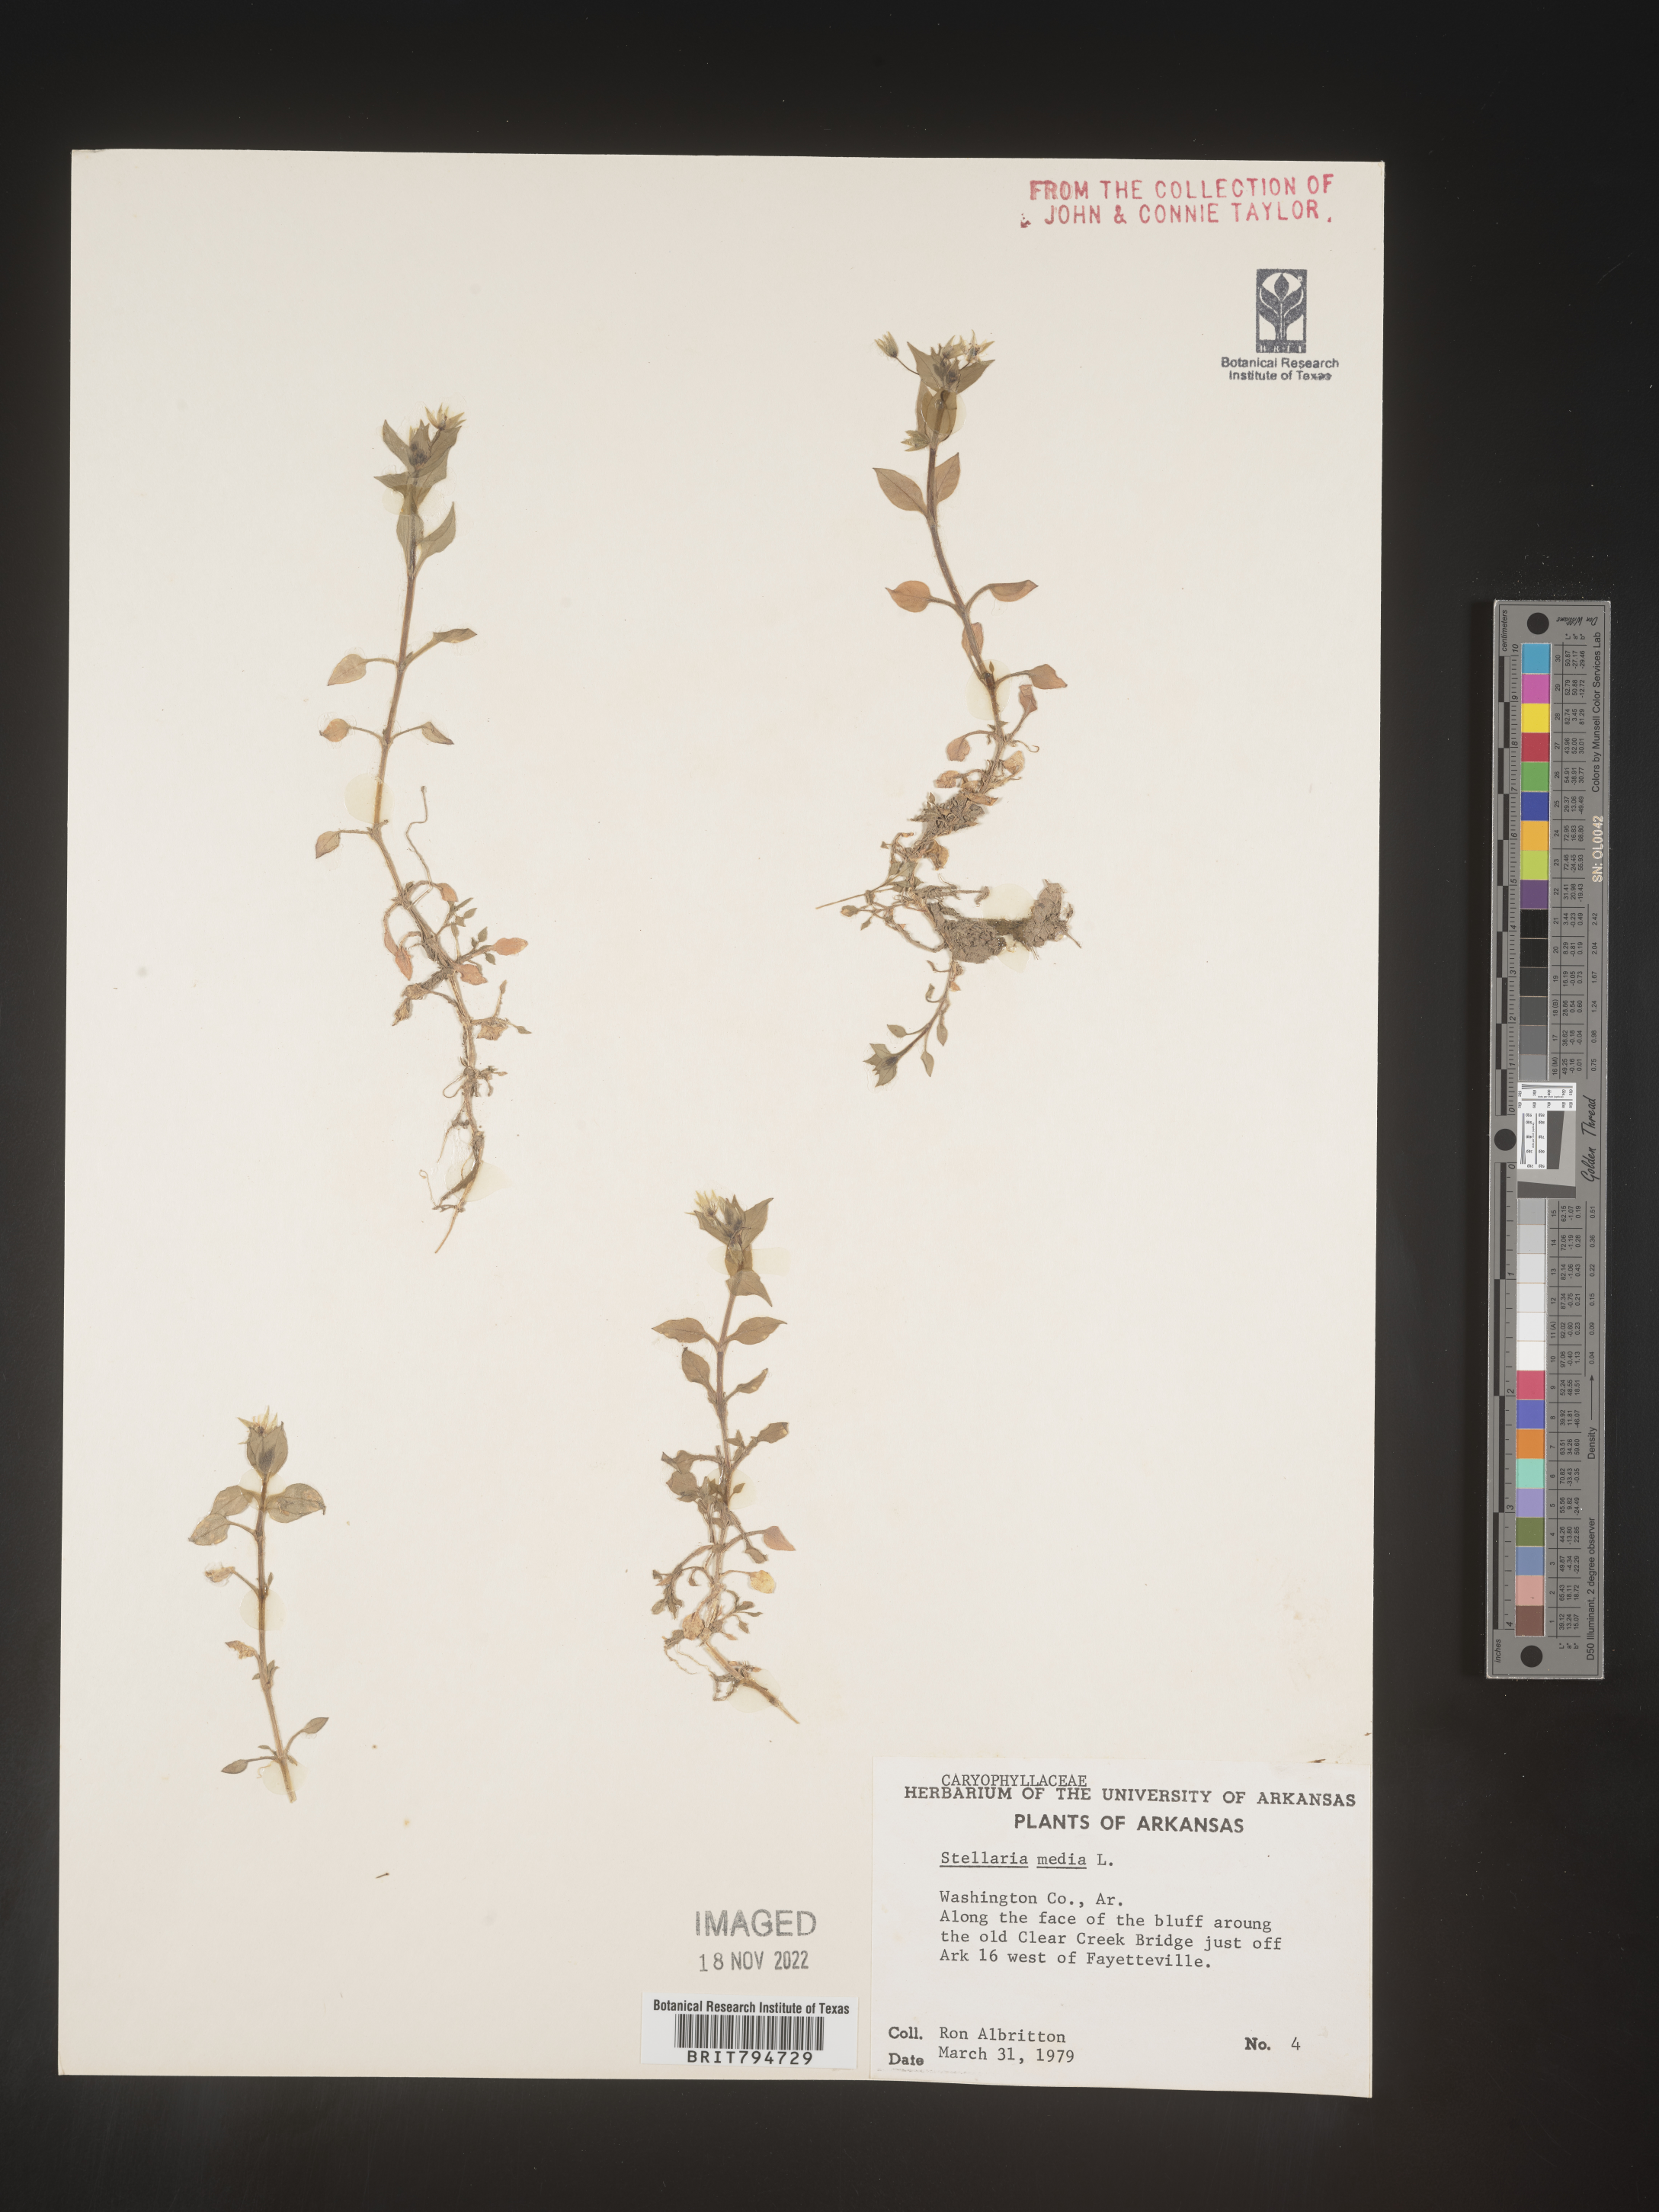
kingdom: Plantae
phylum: Tracheophyta
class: Magnoliopsida
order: Caryophyllales
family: Caryophyllaceae
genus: Stellaria
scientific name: Stellaria media
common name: Common chickweed
